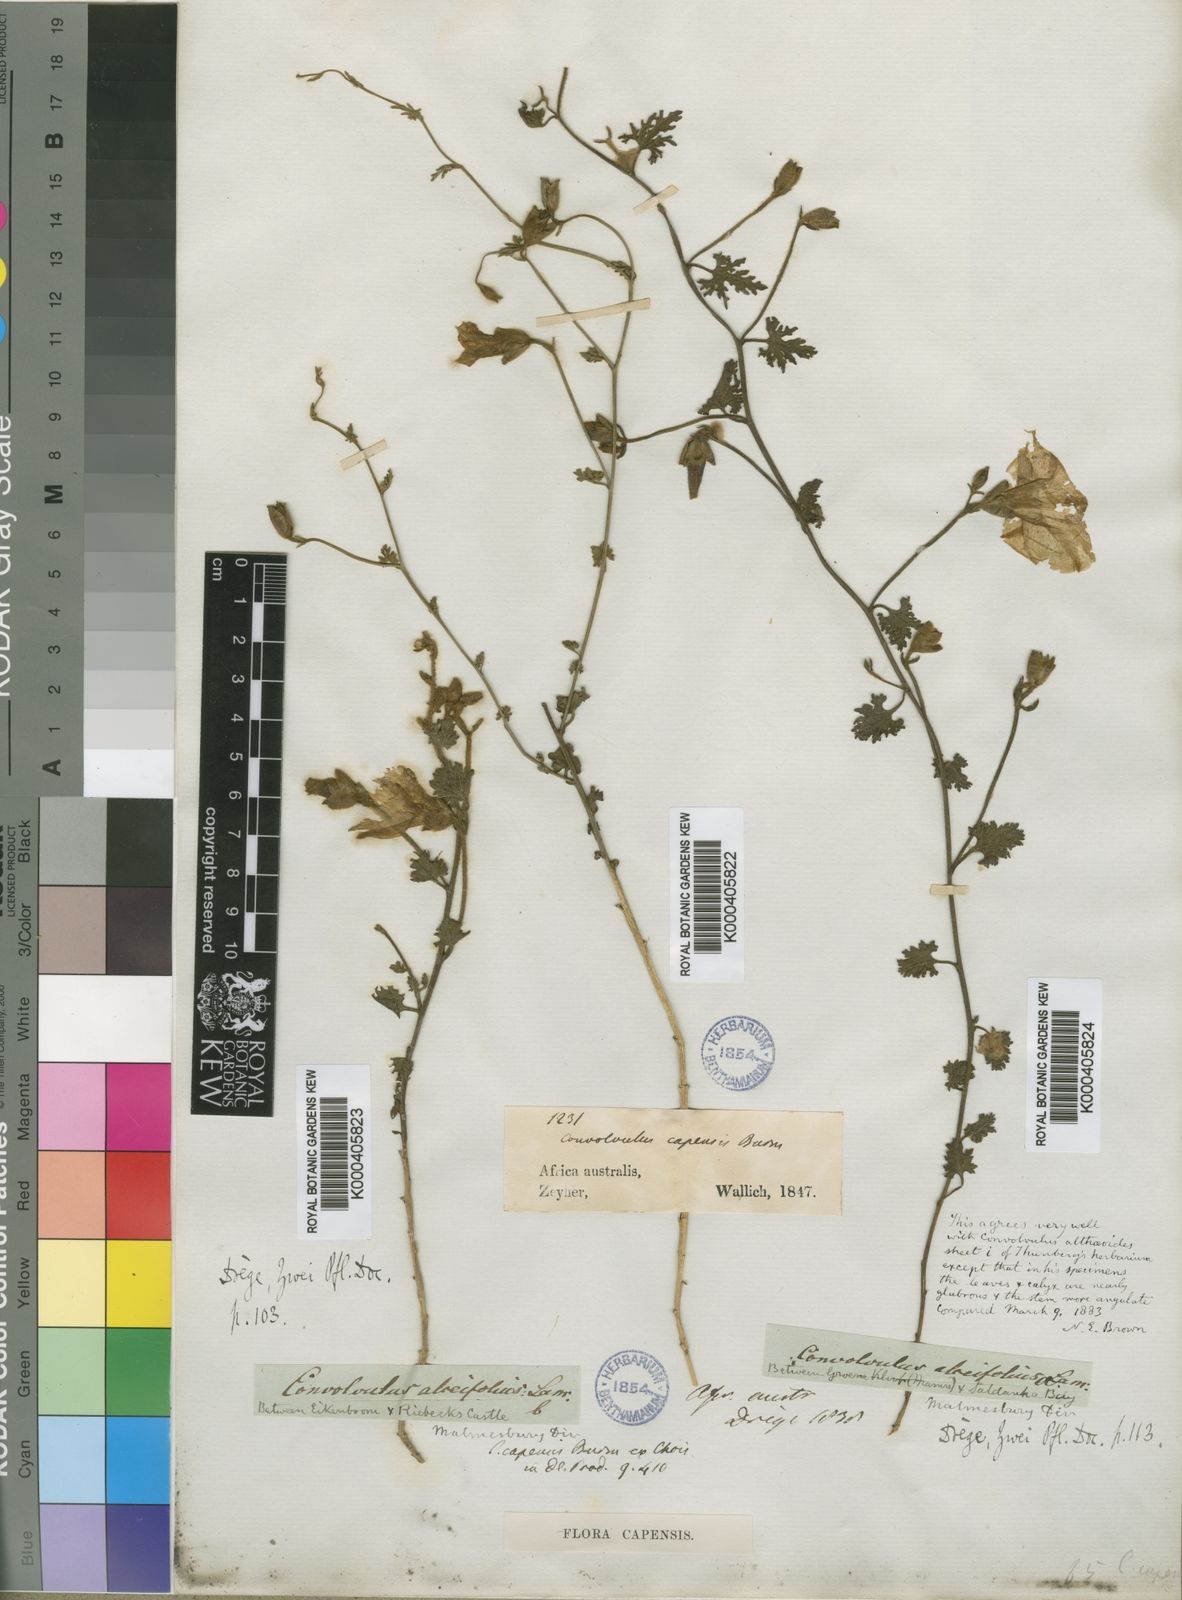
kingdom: Plantae
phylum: Tracheophyta
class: Magnoliopsida
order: Solanales
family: Convolvulaceae
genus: Convolvulus
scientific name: Convolvulus capensis
